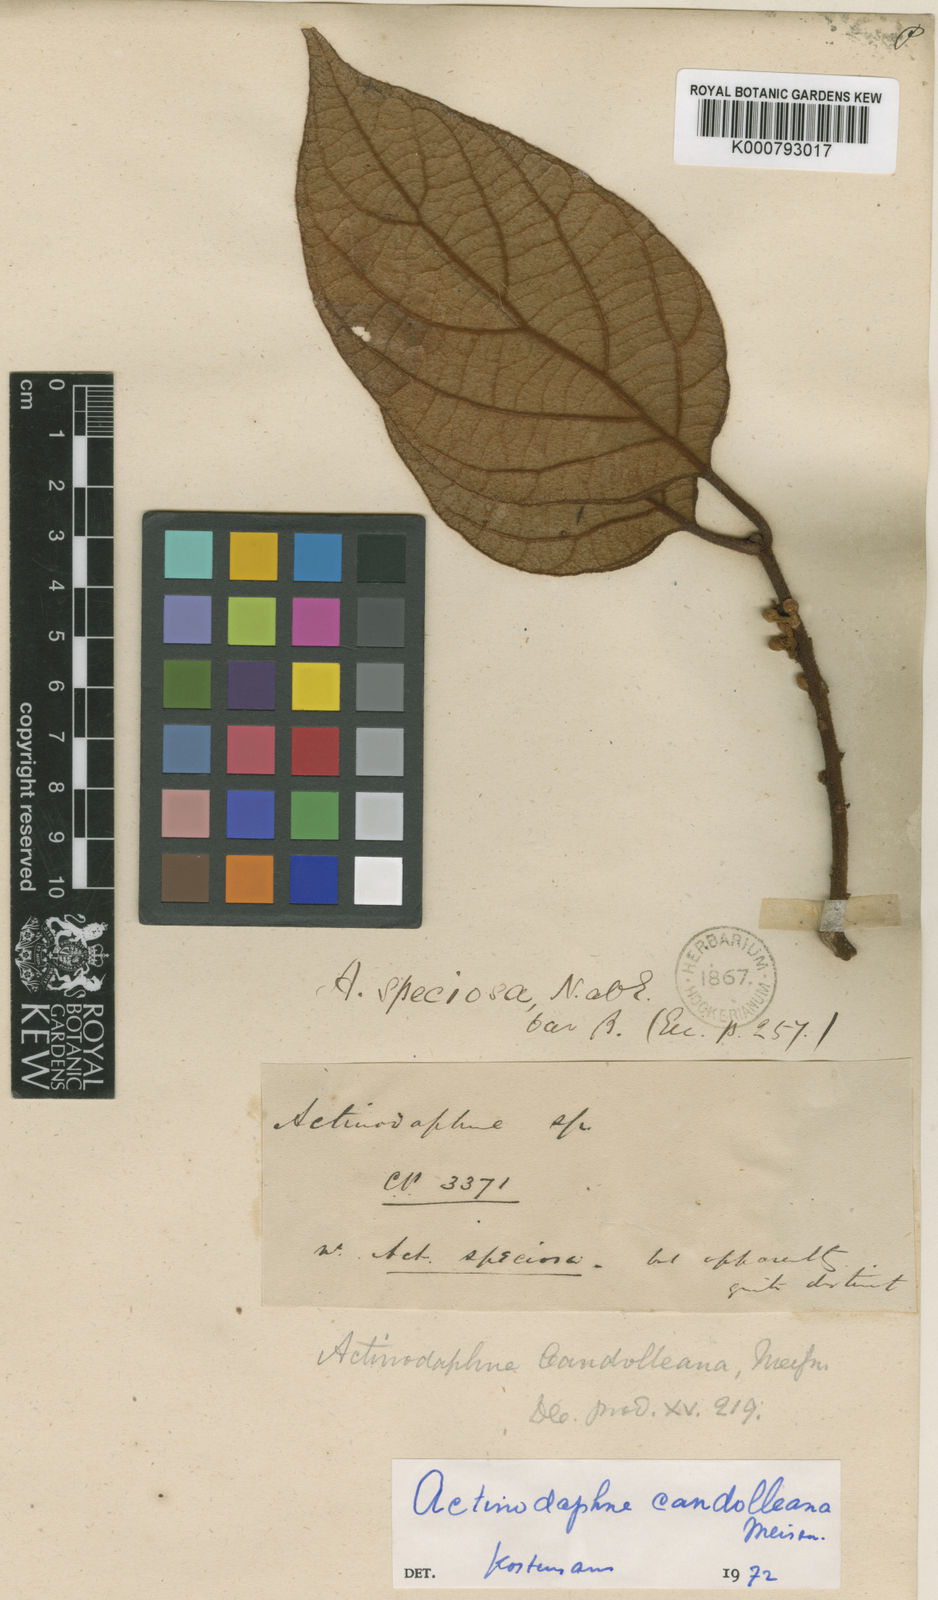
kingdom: Plantae
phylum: Tracheophyta
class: Magnoliopsida
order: Laurales
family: Lauraceae
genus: Actinodaphne
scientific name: Actinodaphne speciosa
